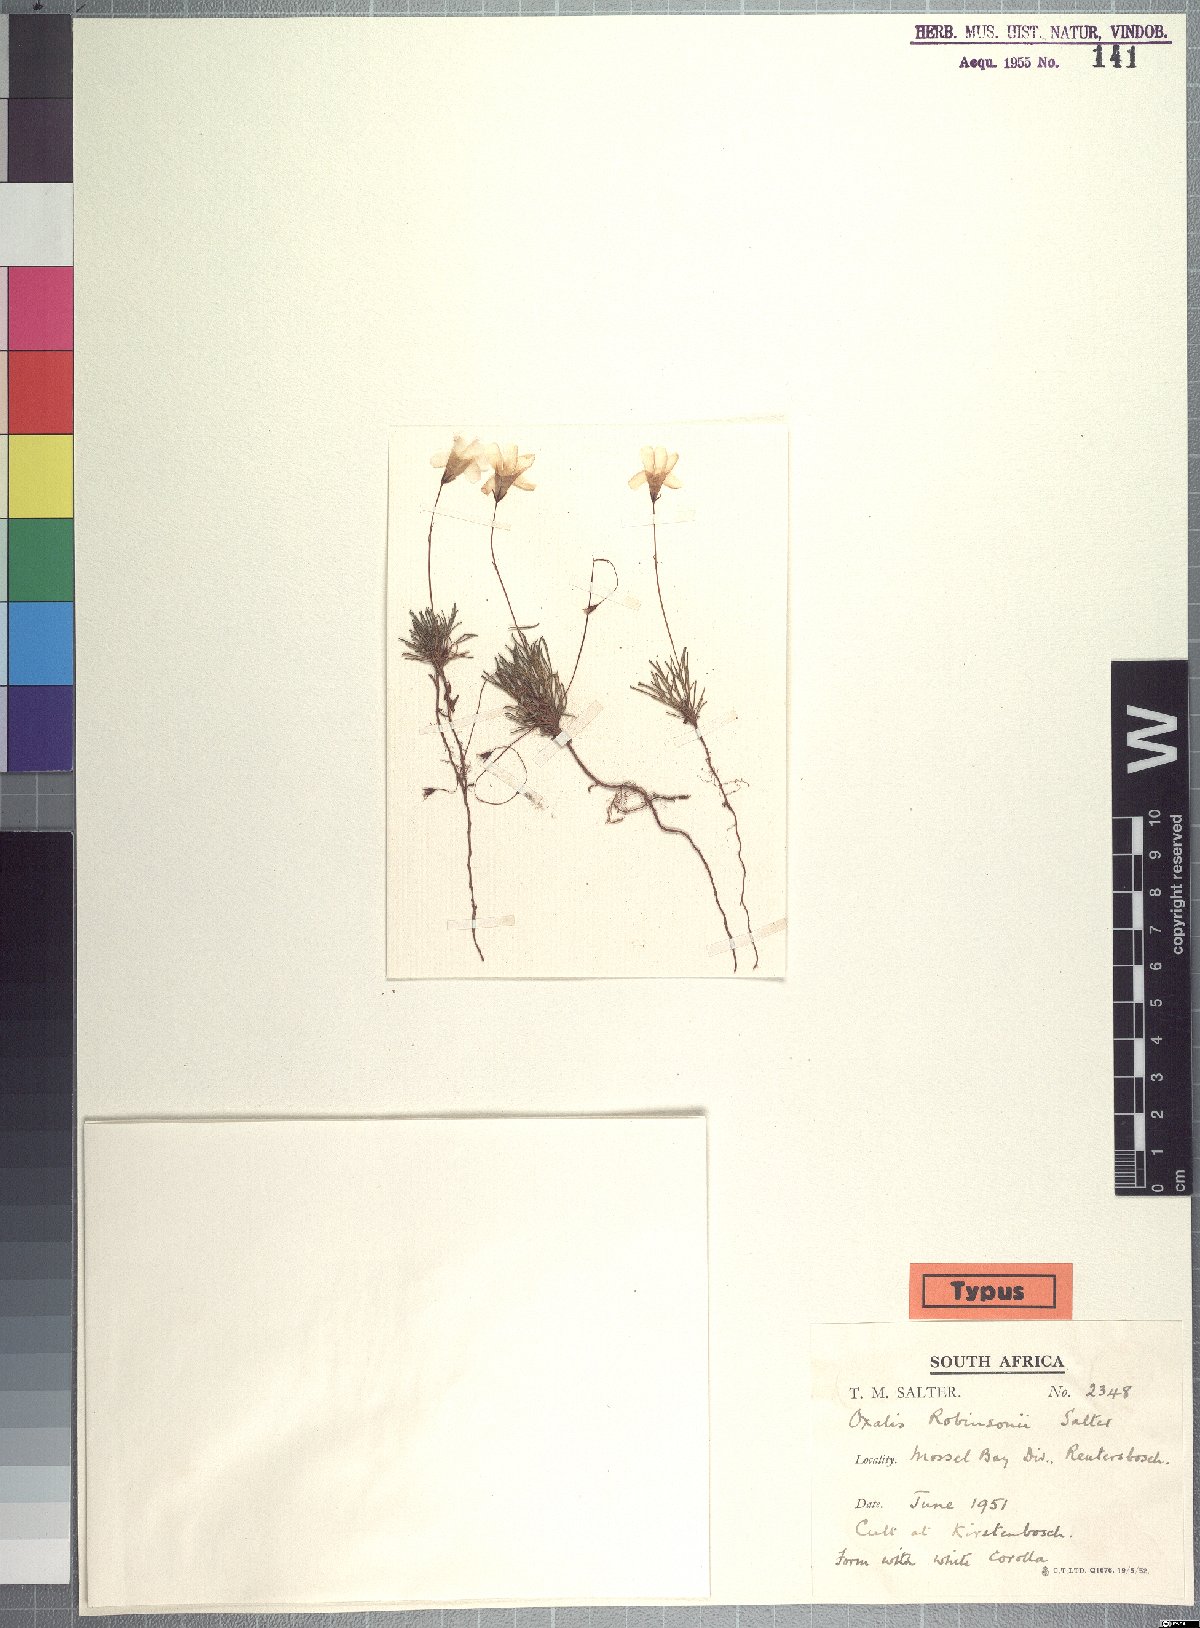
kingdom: Plantae
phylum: Tracheophyta
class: Magnoliopsida
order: Oxalidales
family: Oxalidaceae
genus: Oxalis
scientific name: Oxalis robinsonii
